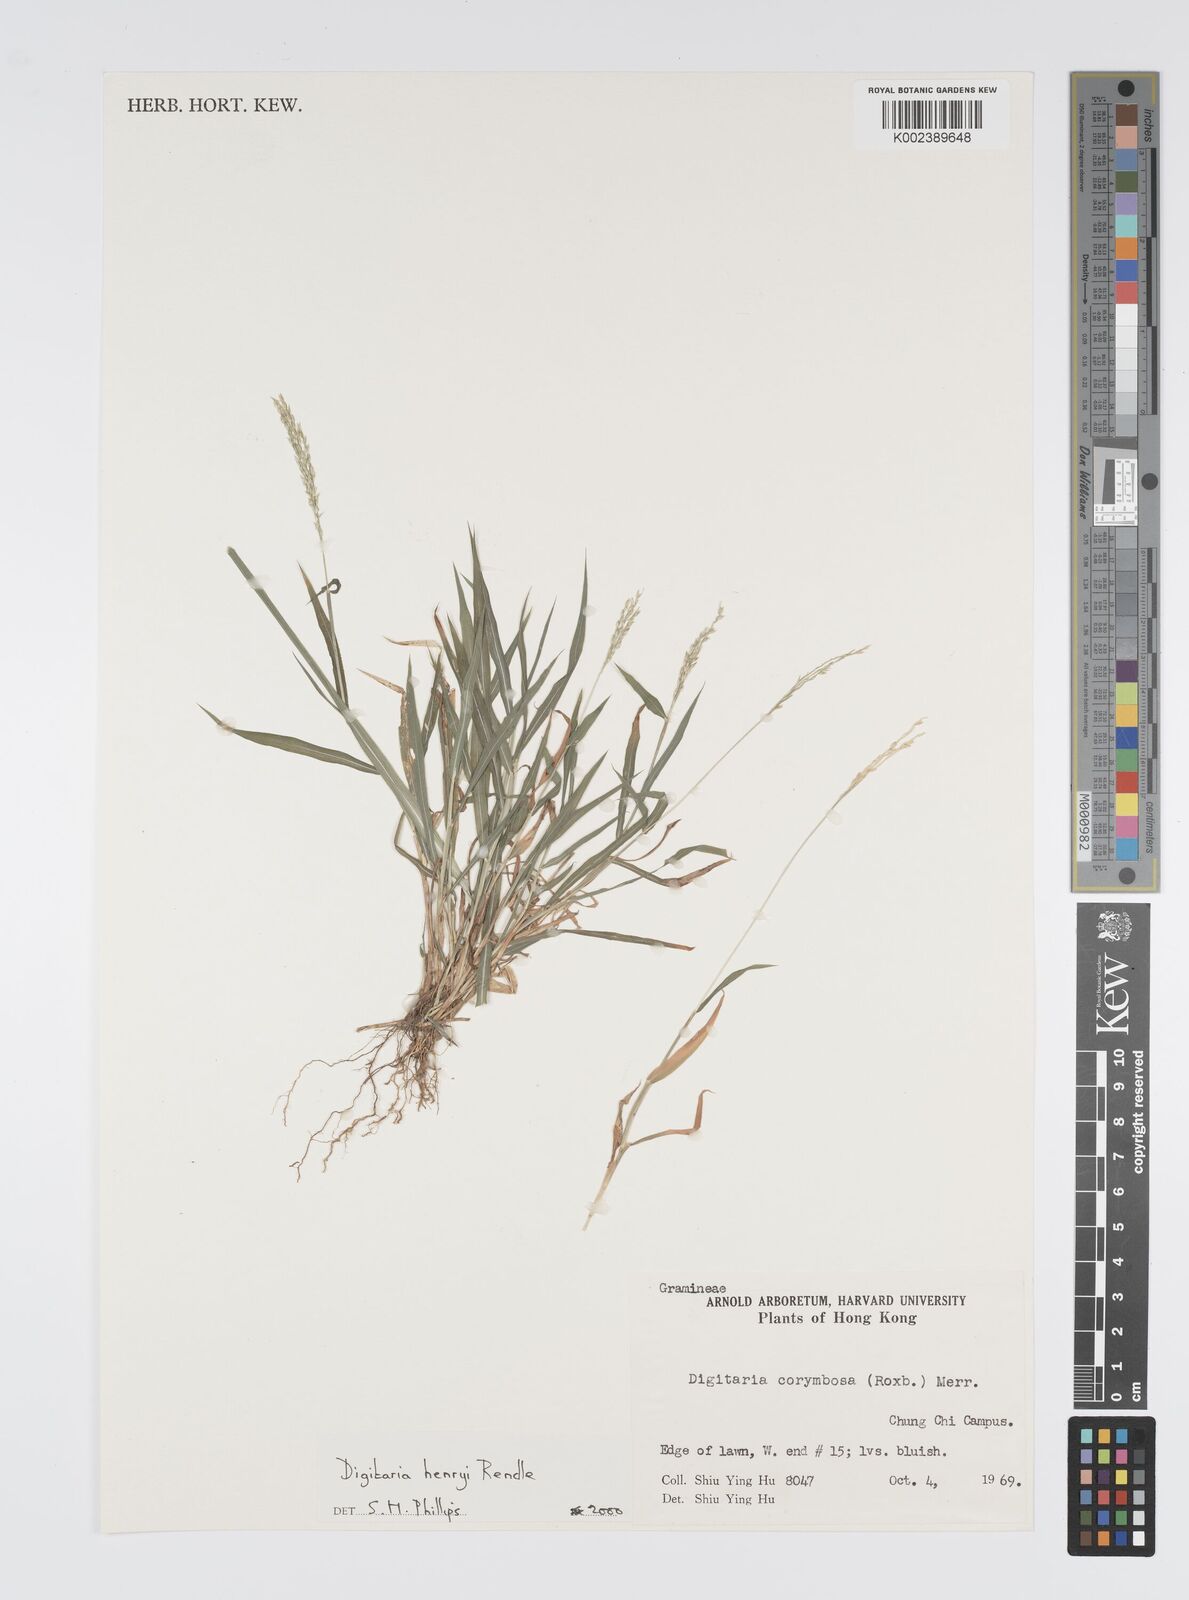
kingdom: Plantae
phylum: Tracheophyta
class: Liliopsida
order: Poales
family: Poaceae
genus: Digitaria
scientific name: Digitaria ciliaris
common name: Tropical finger-grass
